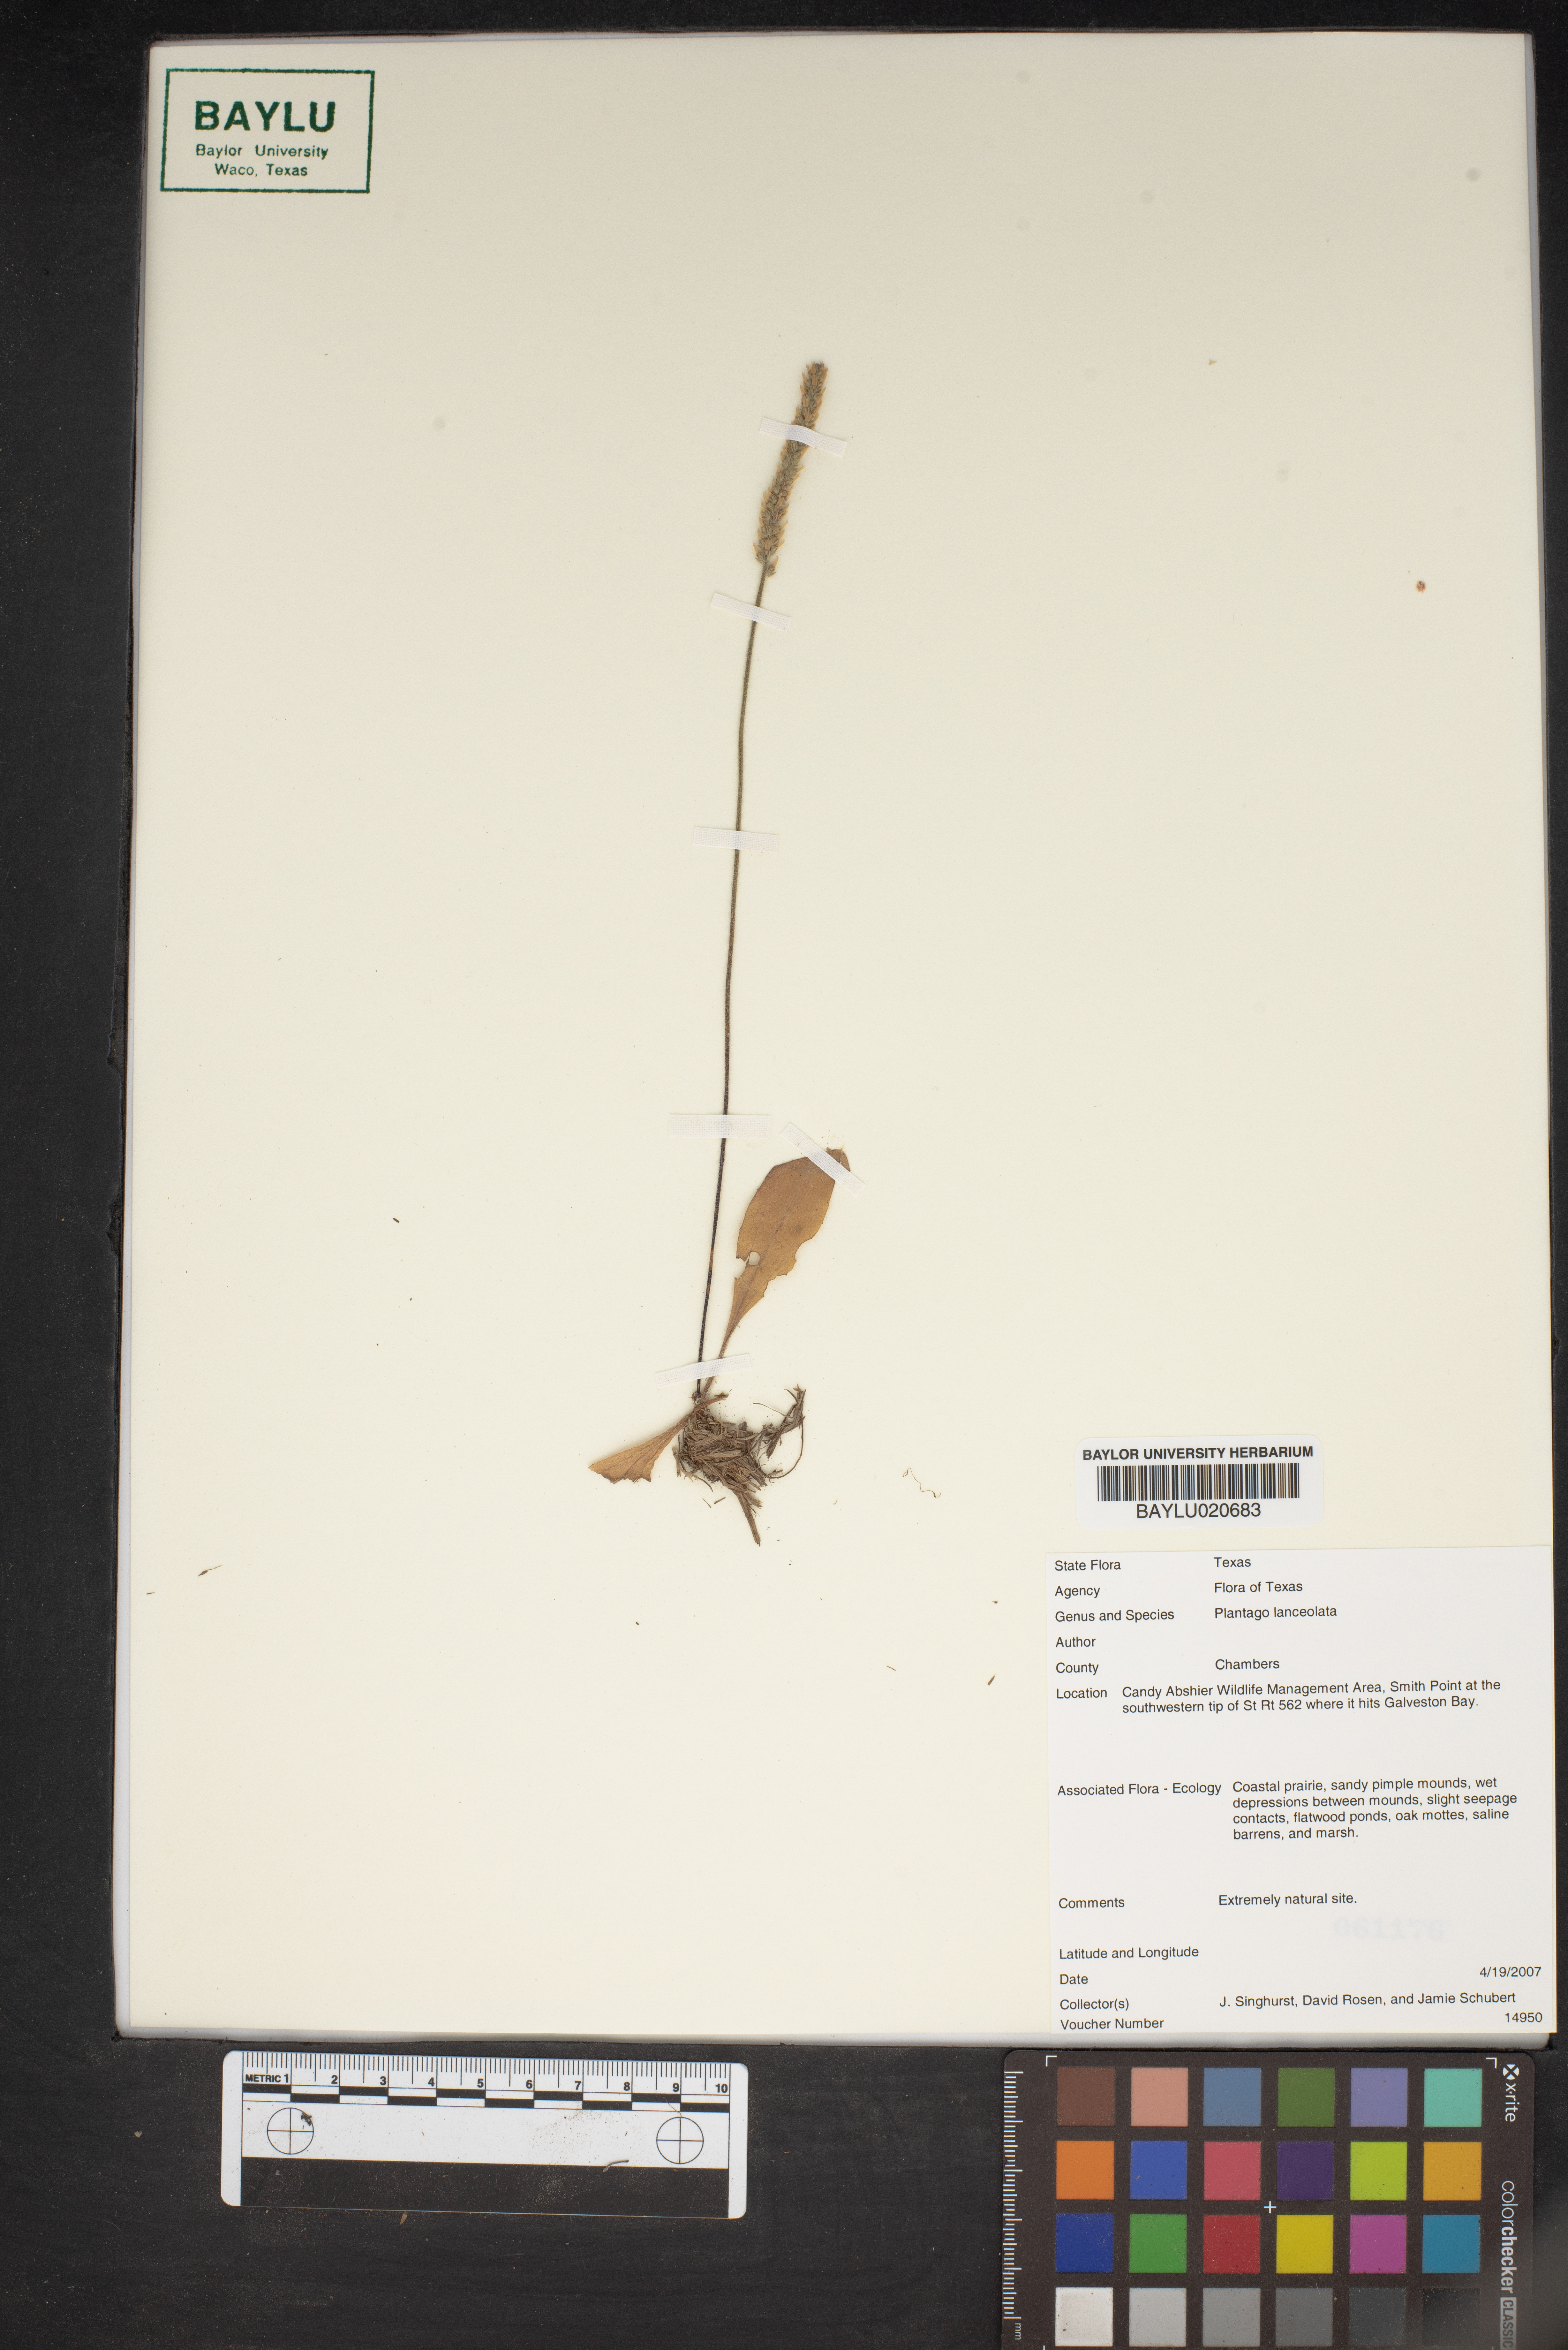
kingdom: Plantae
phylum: Tracheophyta
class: Magnoliopsida
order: Lamiales
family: Plantaginaceae
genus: Plantago
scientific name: Plantago lanceolata
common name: Ribwort plantain
